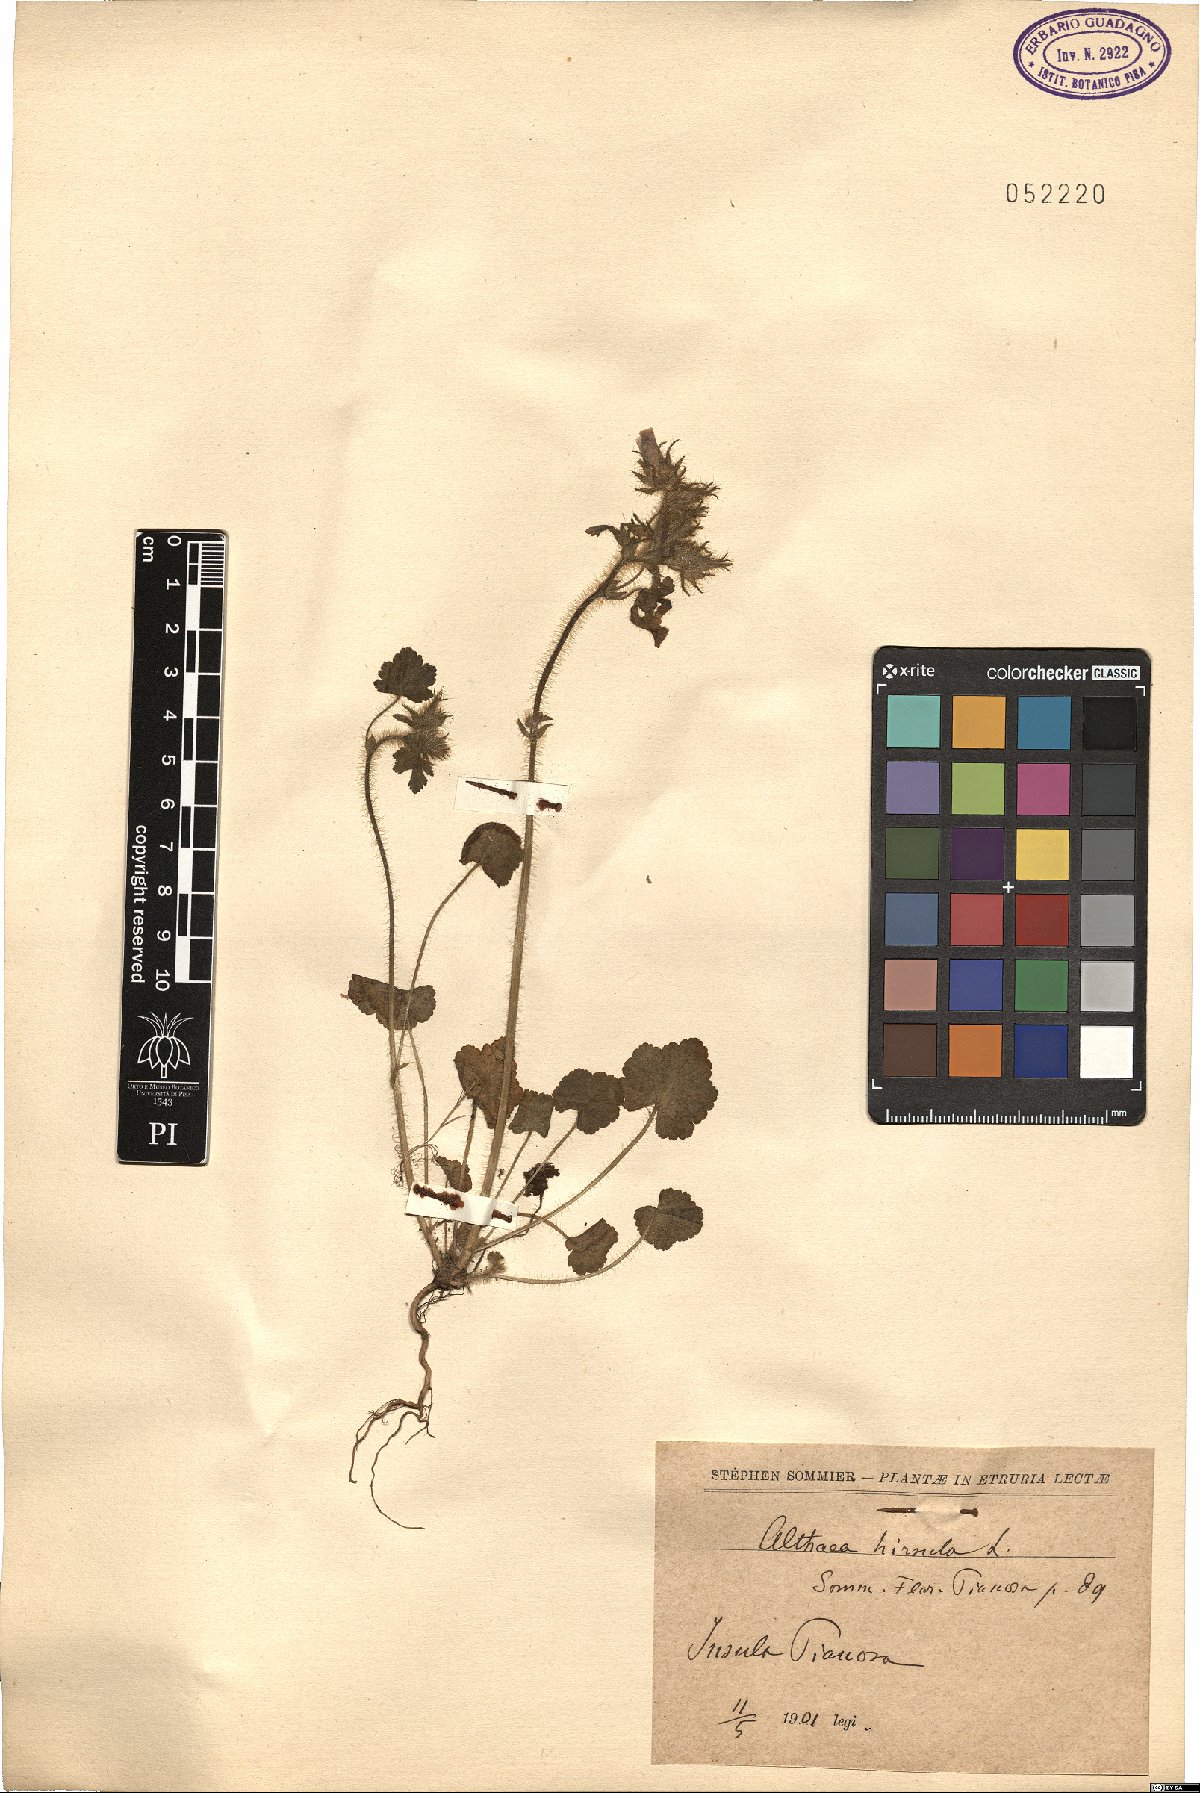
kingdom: Plantae
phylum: Tracheophyta
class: Magnoliopsida
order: Malvales
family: Malvaceae
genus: Althaea
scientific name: Althaea hirsuta
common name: Rough marsh-mallow
